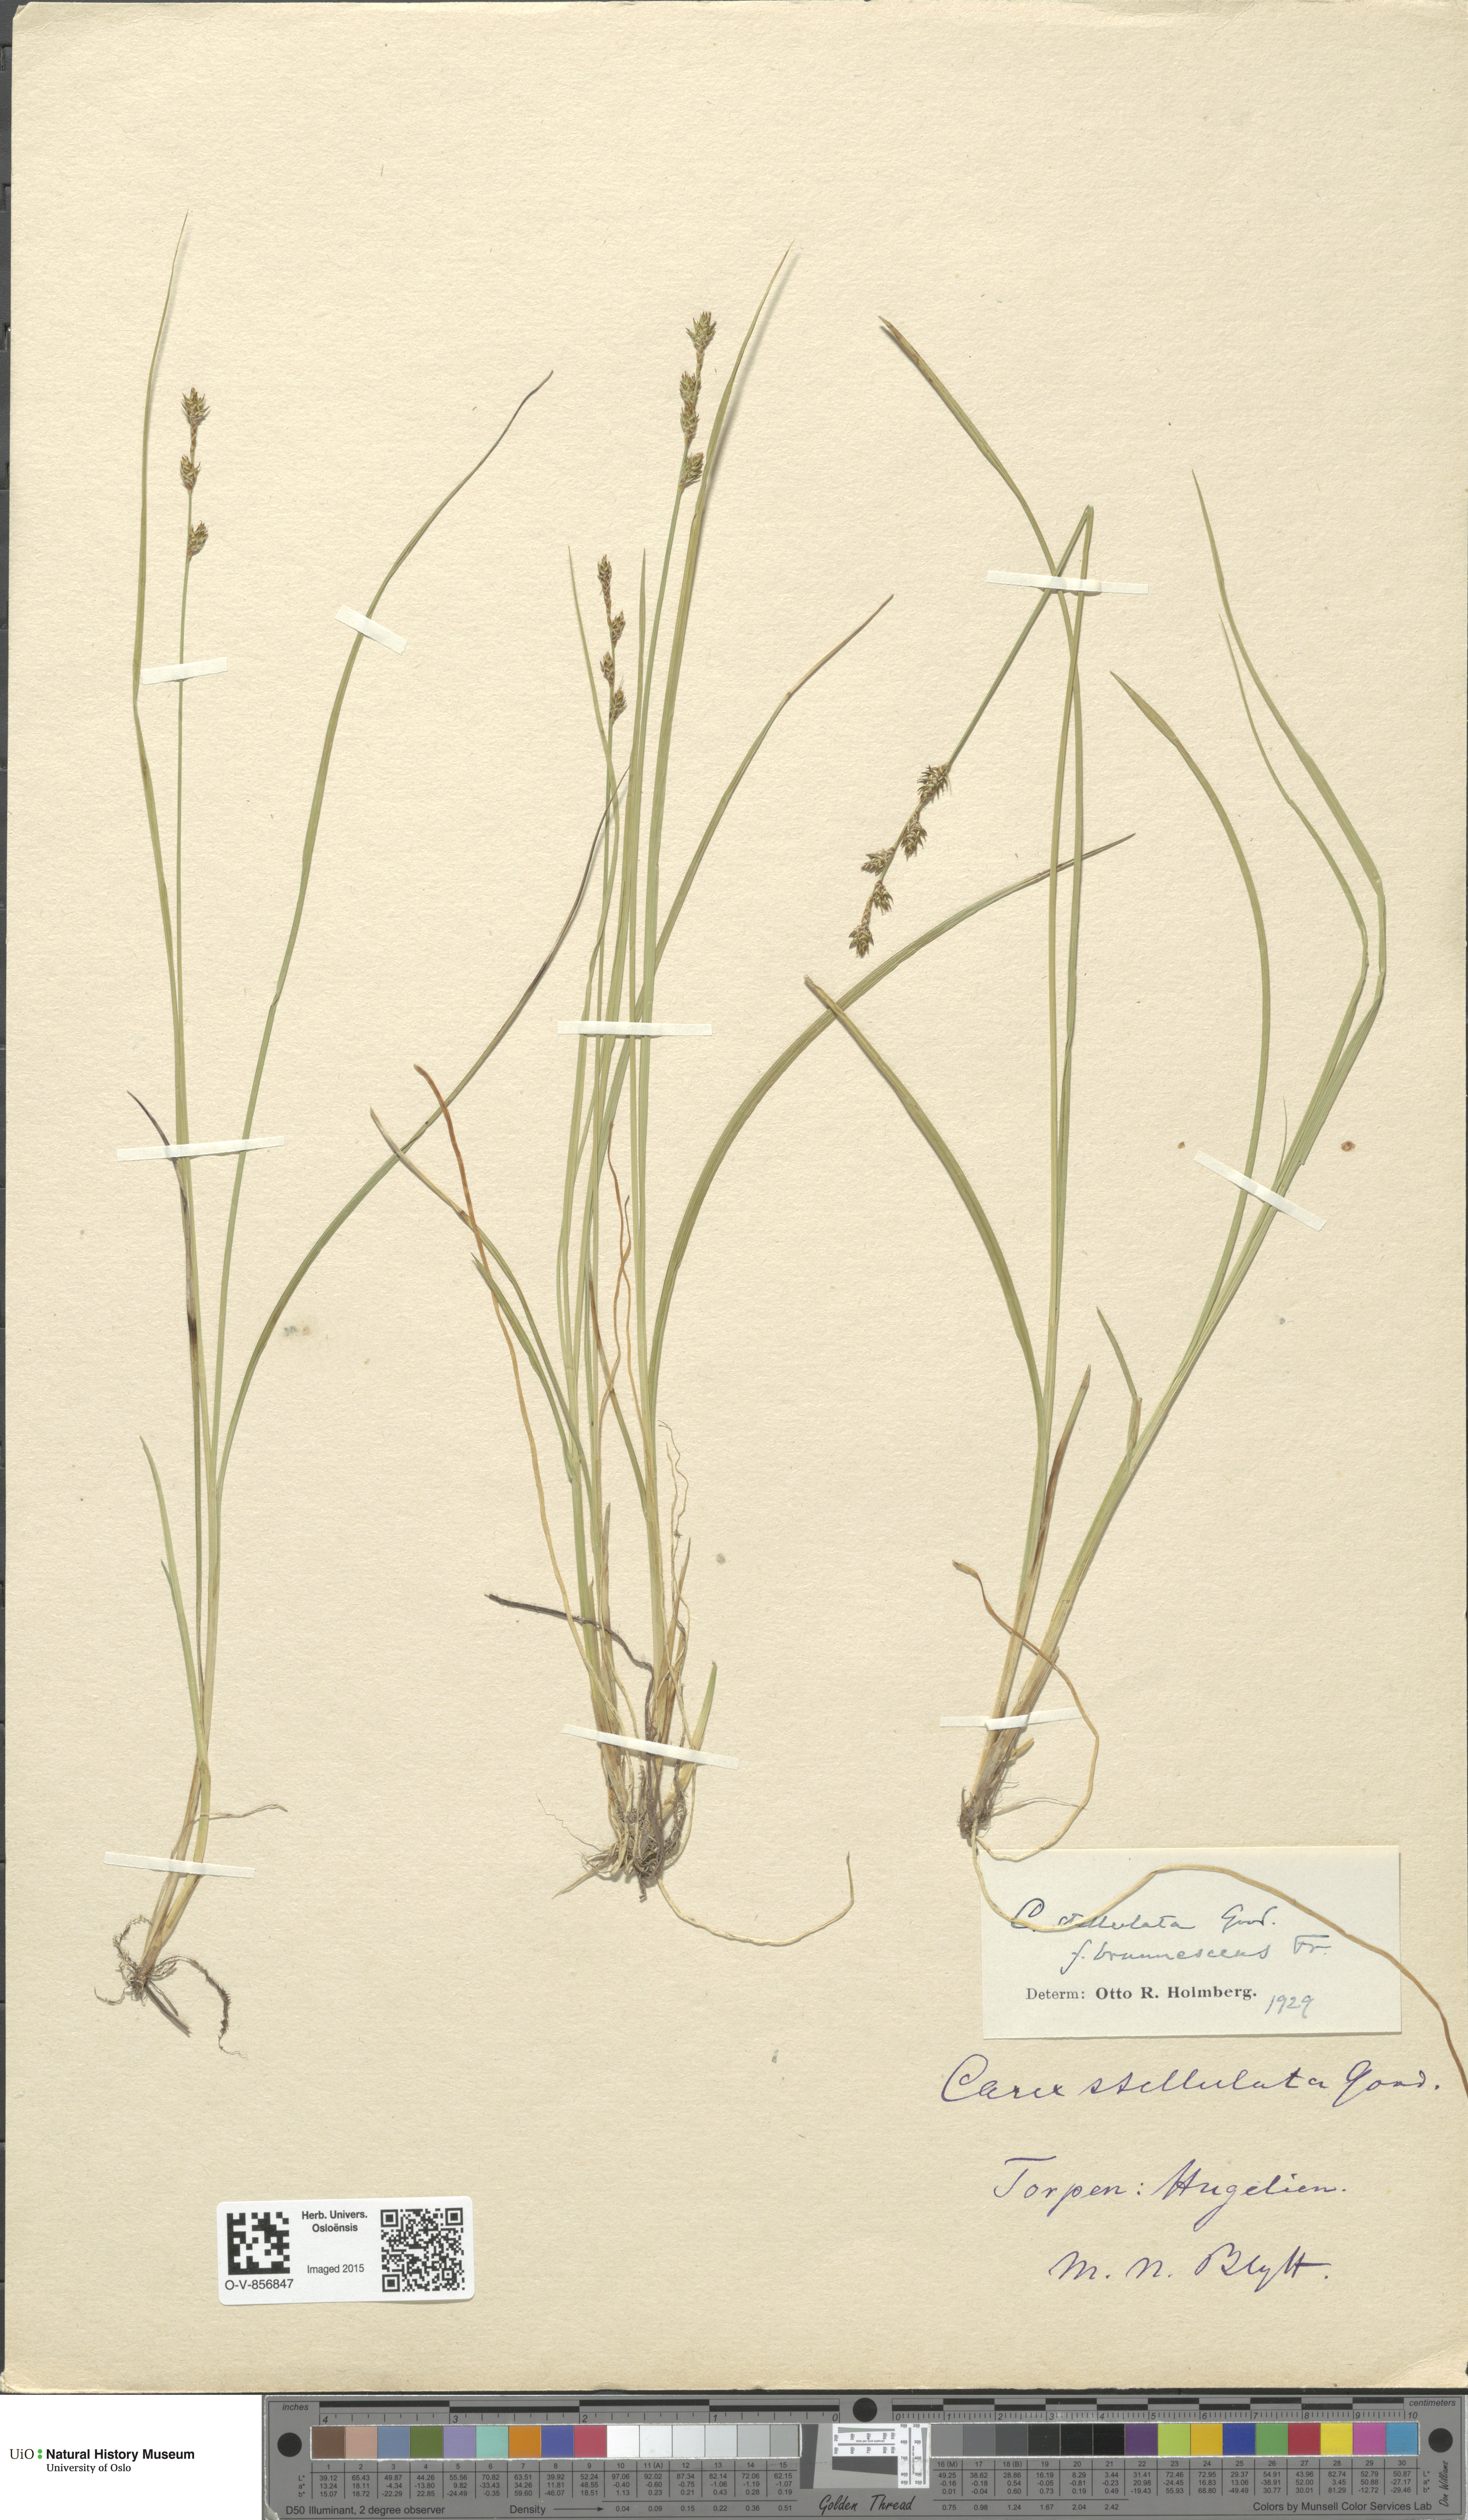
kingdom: Plantae
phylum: Tracheophyta
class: Liliopsida
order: Poales
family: Cyperaceae
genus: Carex
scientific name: Carex echinata
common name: Star sedge
